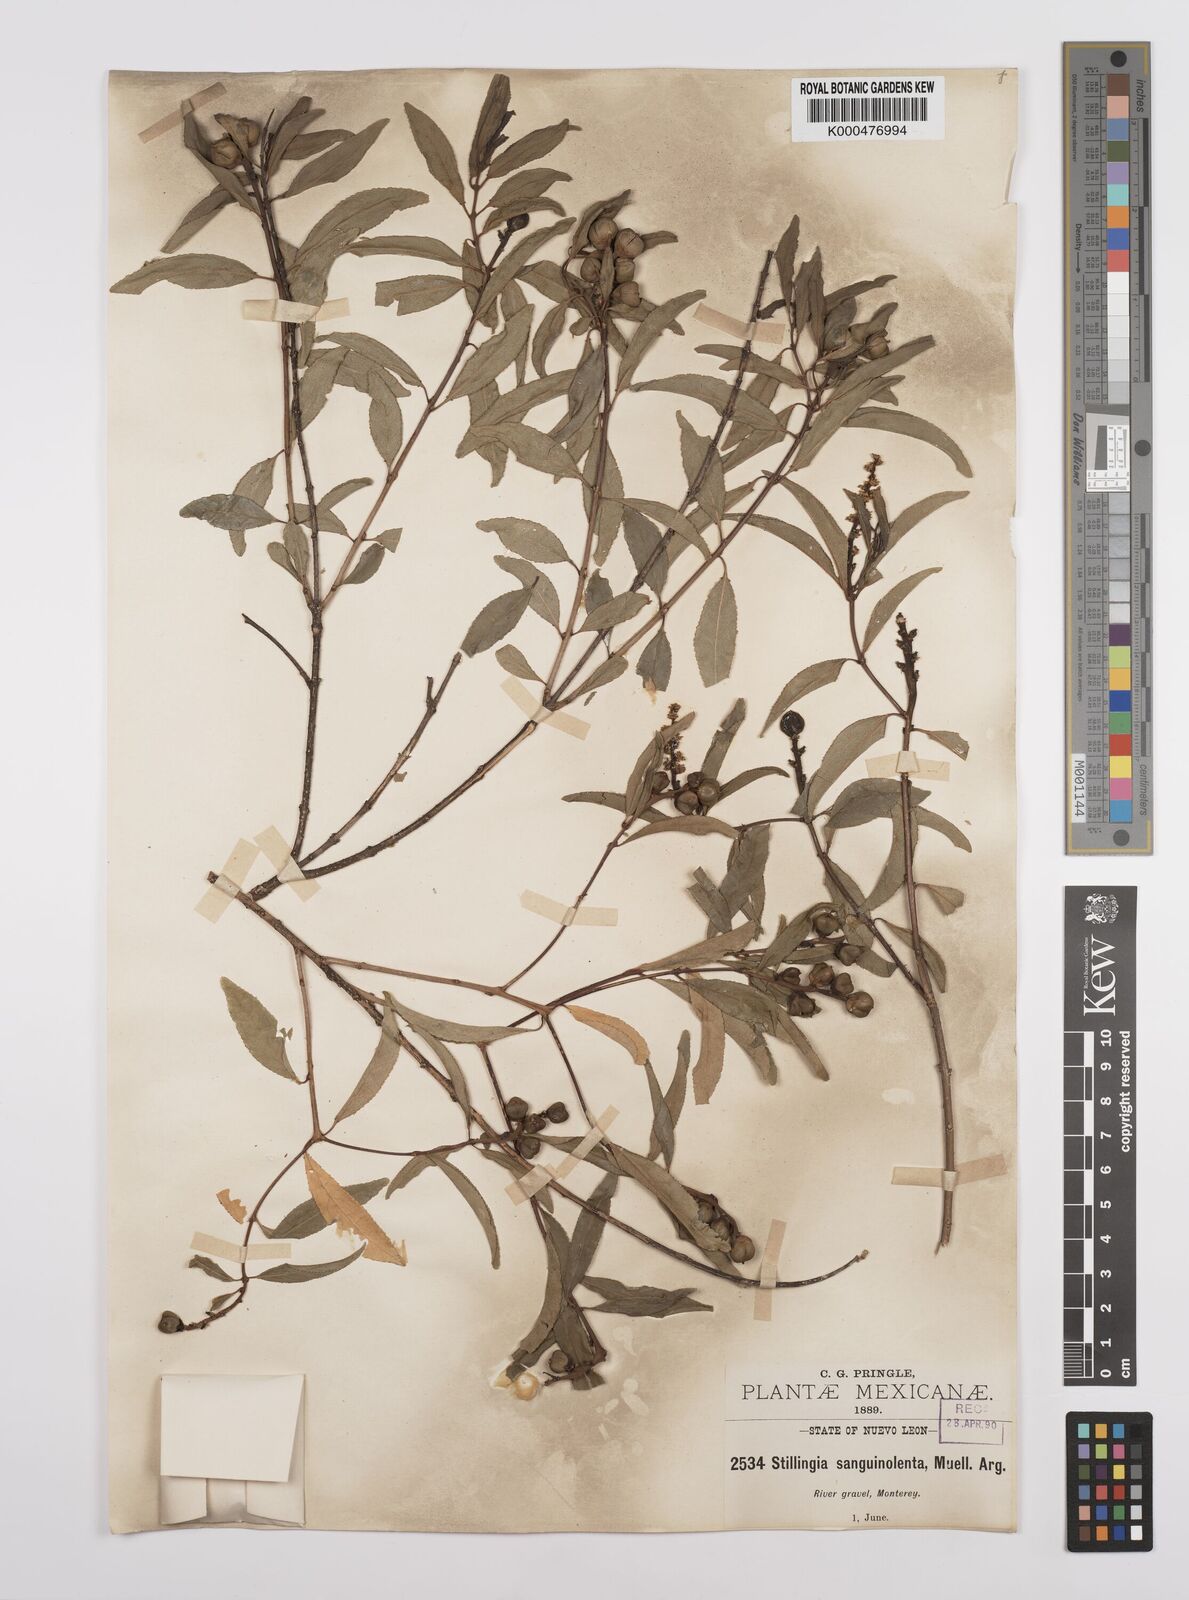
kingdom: Plantae
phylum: Tracheophyta
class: Magnoliopsida
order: Malpighiales
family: Euphorbiaceae
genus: Stillingia
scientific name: Stillingia
